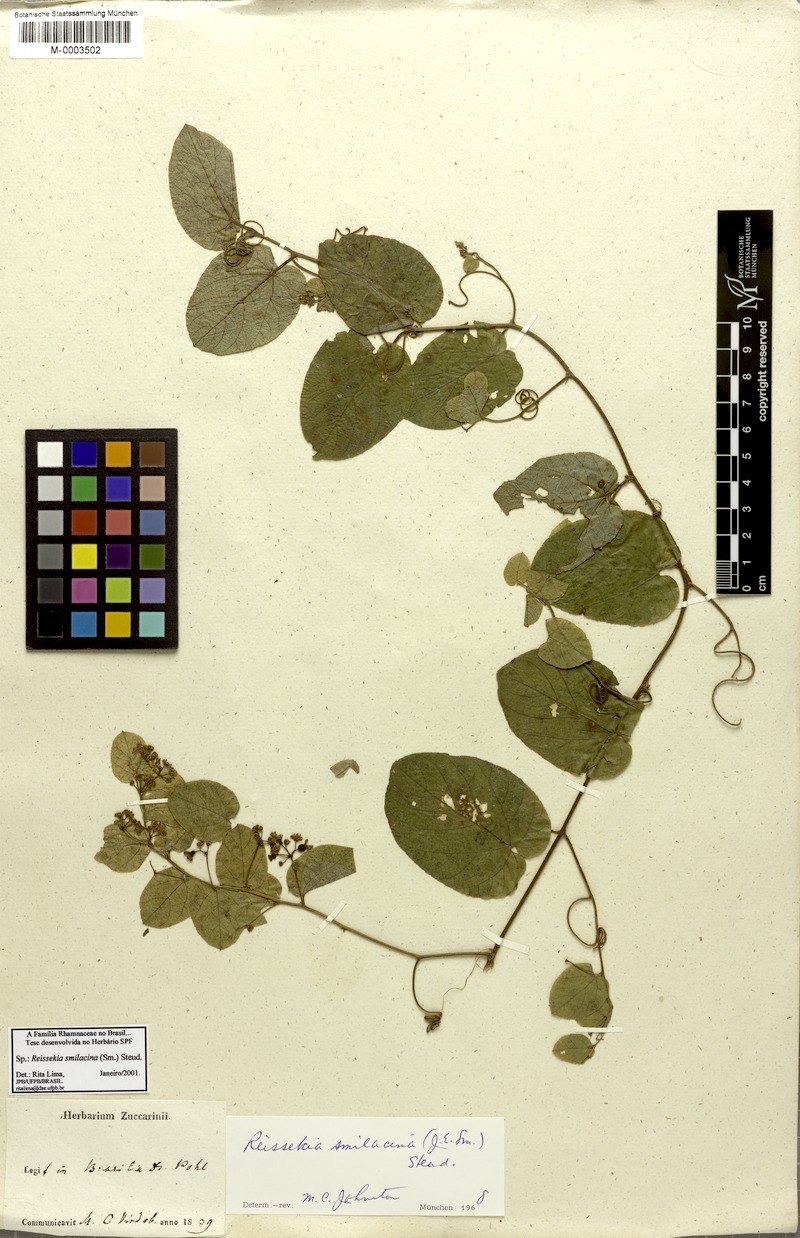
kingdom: Plantae
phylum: Tracheophyta
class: Magnoliopsida
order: Rosales
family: Rhamnaceae
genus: Reissekia
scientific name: Reissekia smilacina
